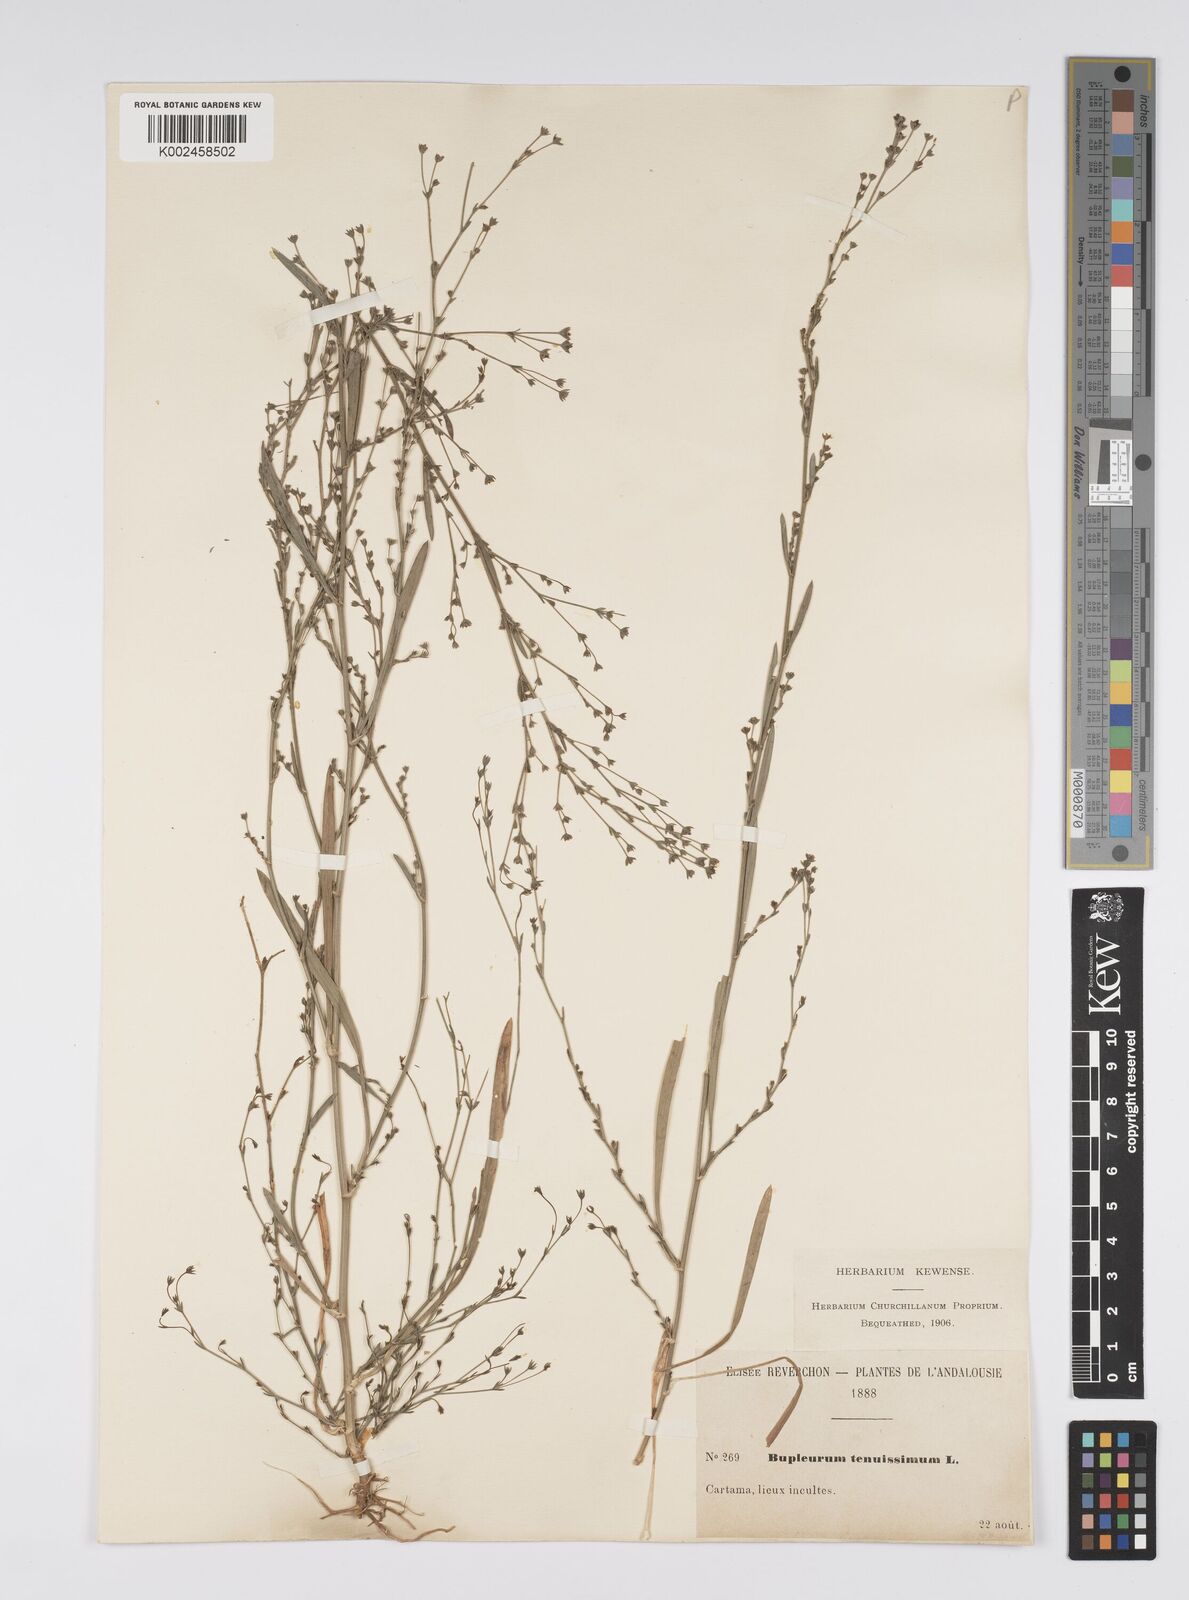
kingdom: Plantae
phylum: Tracheophyta
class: Magnoliopsida
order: Apiales
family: Apiaceae
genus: Bupleurum
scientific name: Bupleurum tenuissimum
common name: Slender hare's-ear
